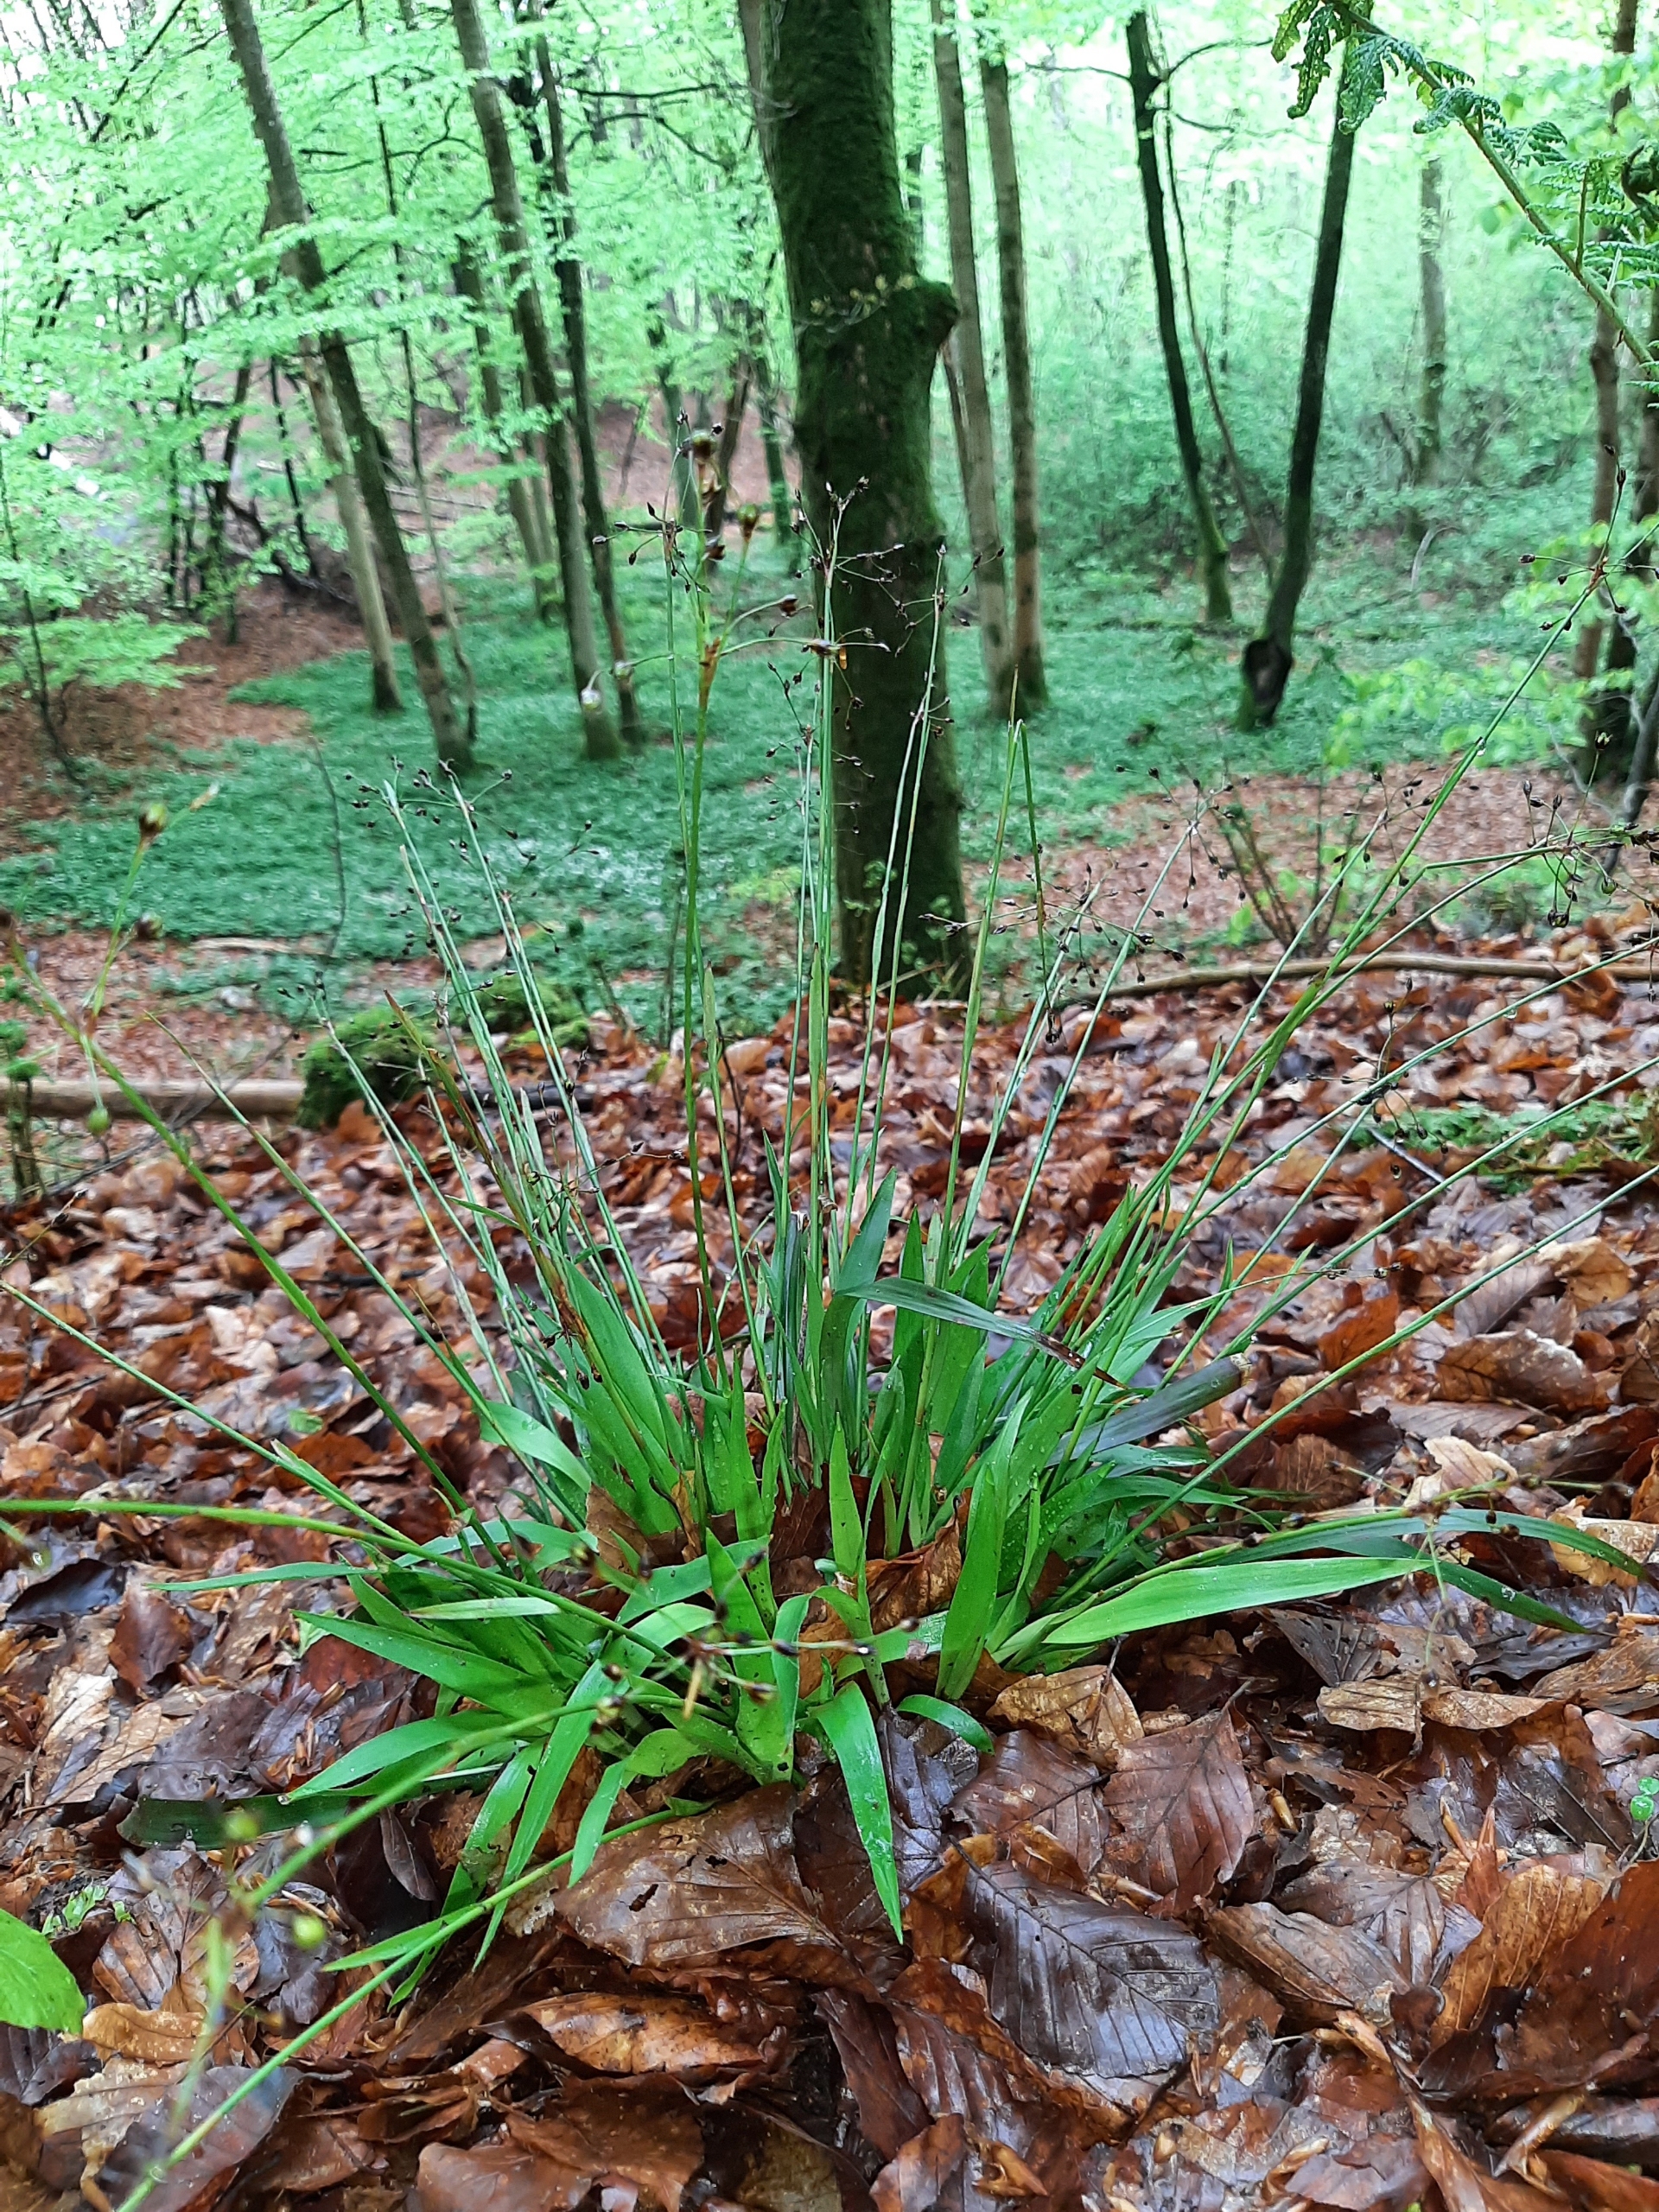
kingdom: Plantae
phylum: Tracheophyta
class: Liliopsida
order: Poales
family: Juncaceae
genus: Luzula
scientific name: Luzula pilosa
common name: Håret frytle
